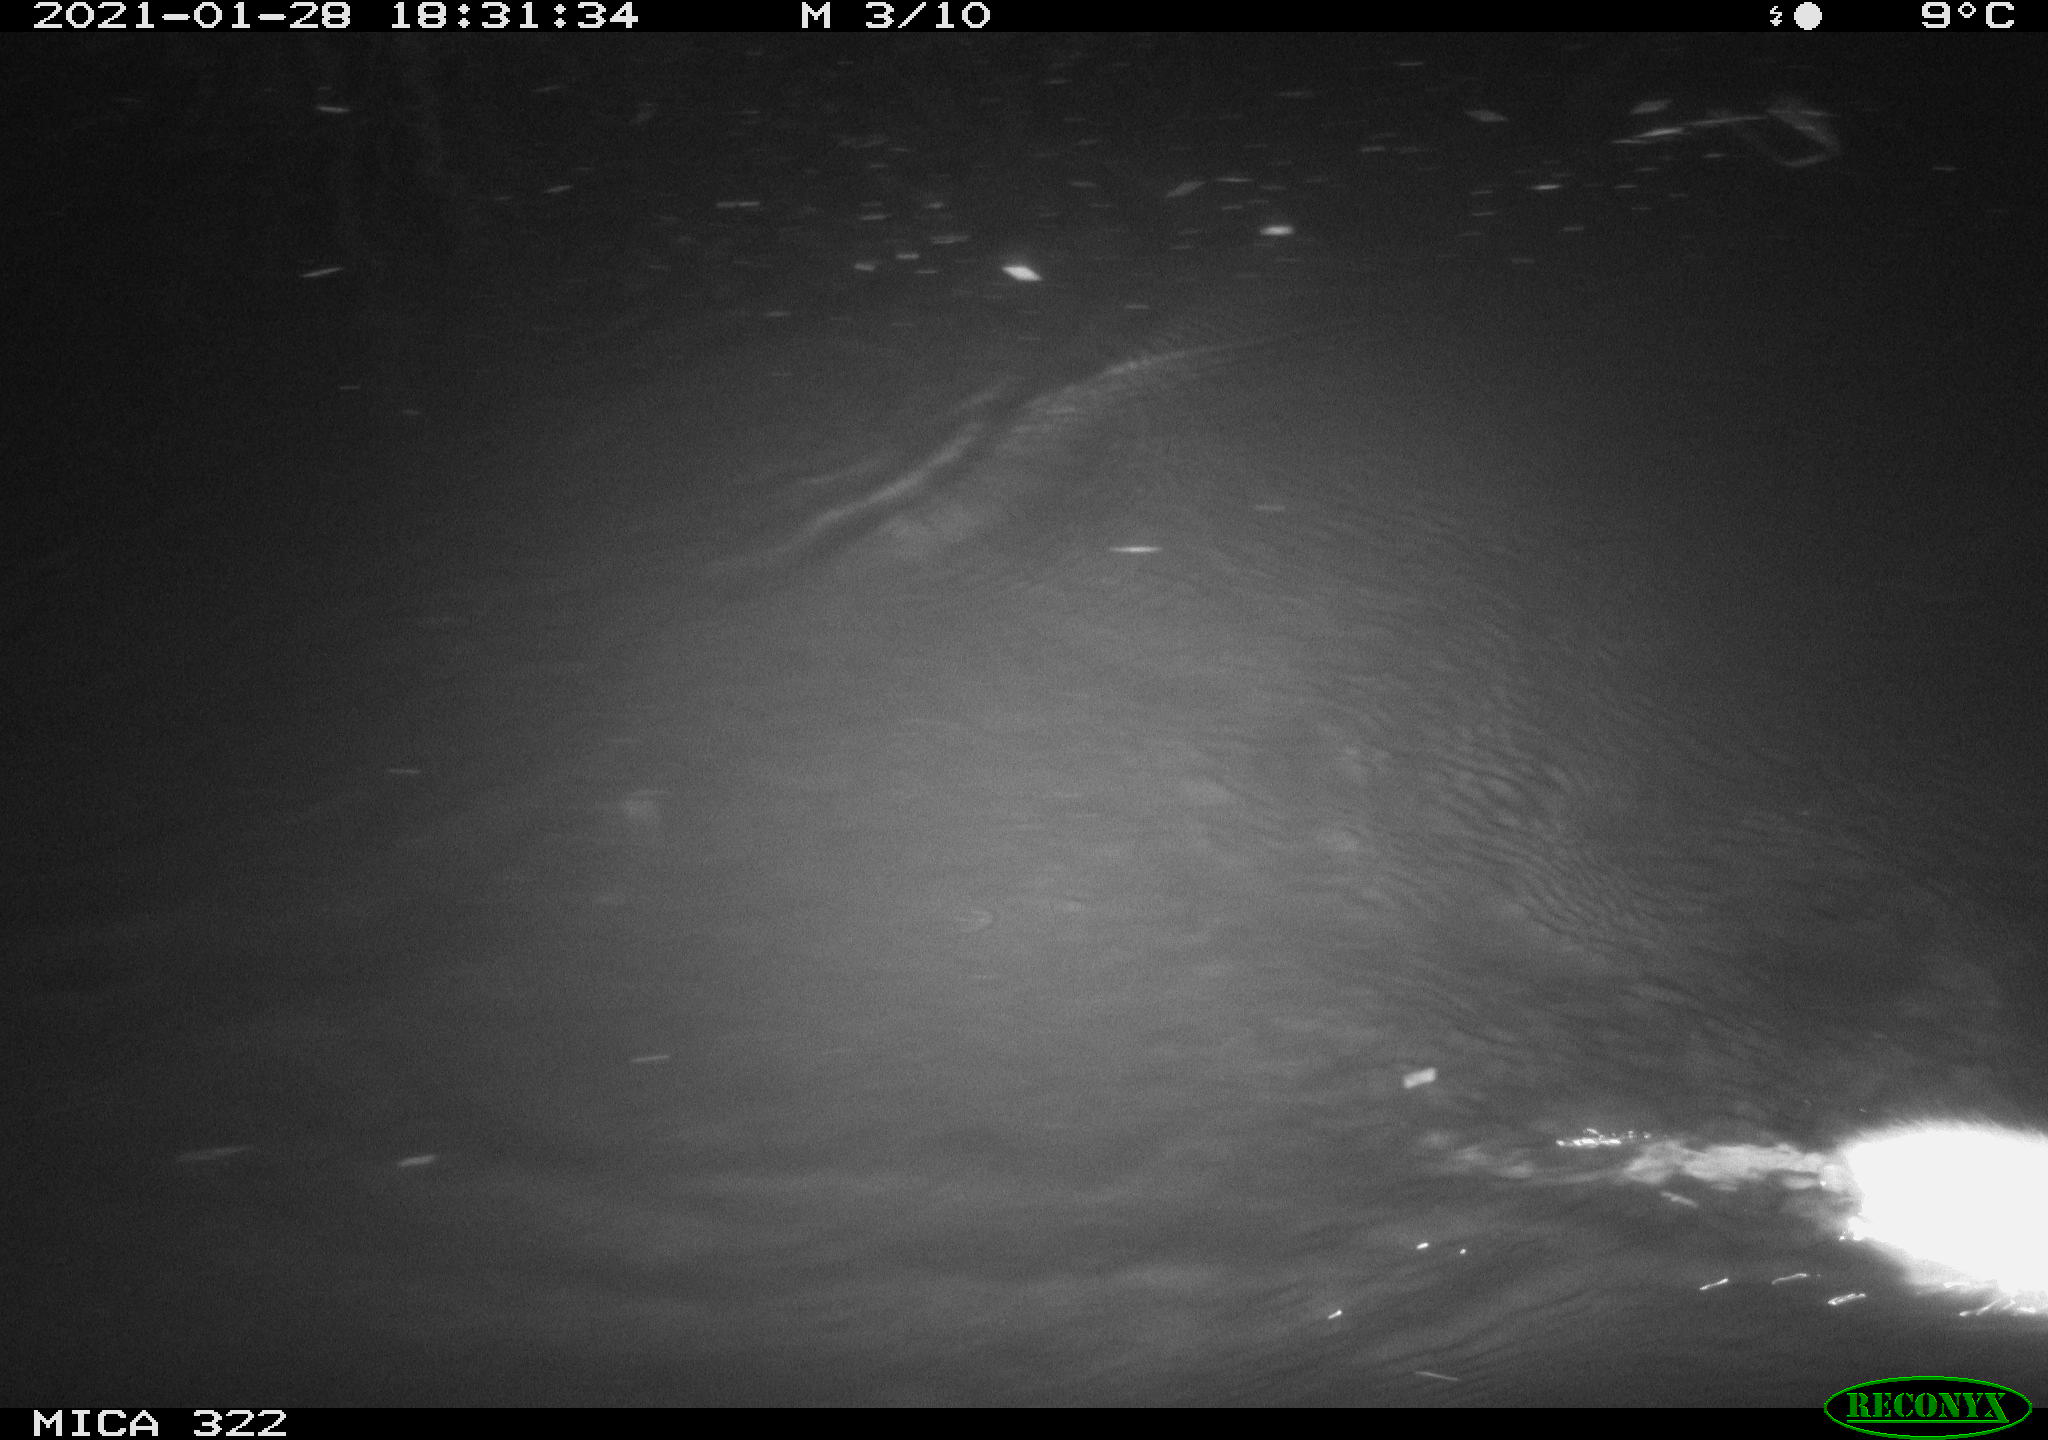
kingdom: Animalia
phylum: Chordata
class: Mammalia
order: Rodentia
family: Muridae
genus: Rattus
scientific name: Rattus norvegicus
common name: Brown rat
